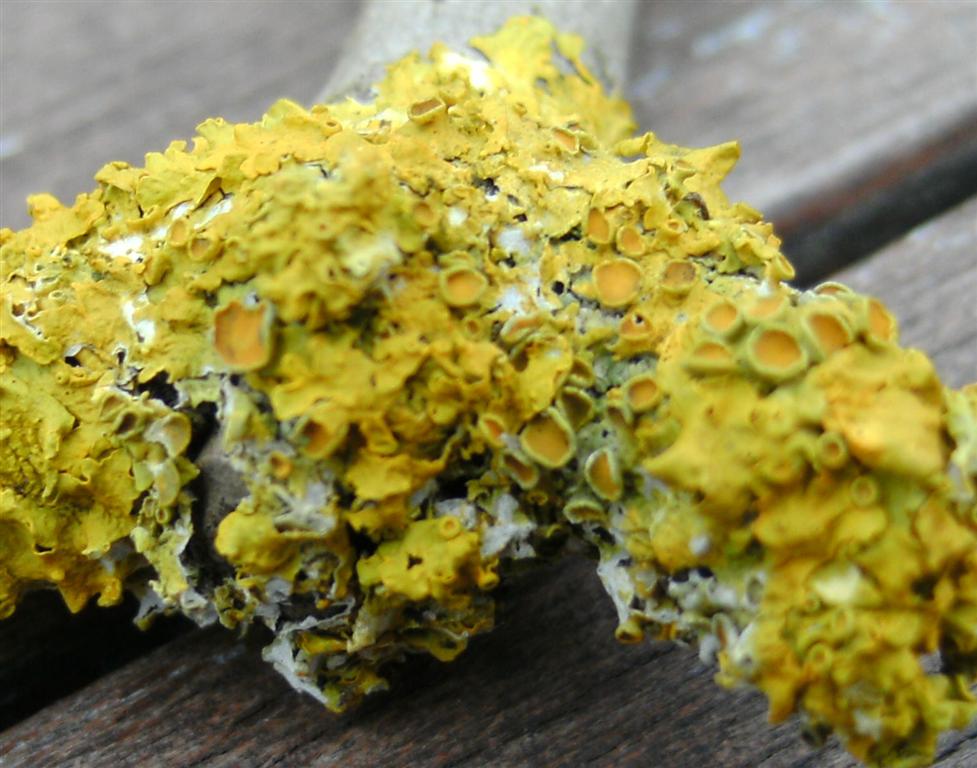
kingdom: Fungi
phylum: Ascomycota
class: Lecanoromycetes
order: Teloschistales
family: Teloschistaceae
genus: Xanthoria
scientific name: Xanthoria parietina
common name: almindelig væggelav
